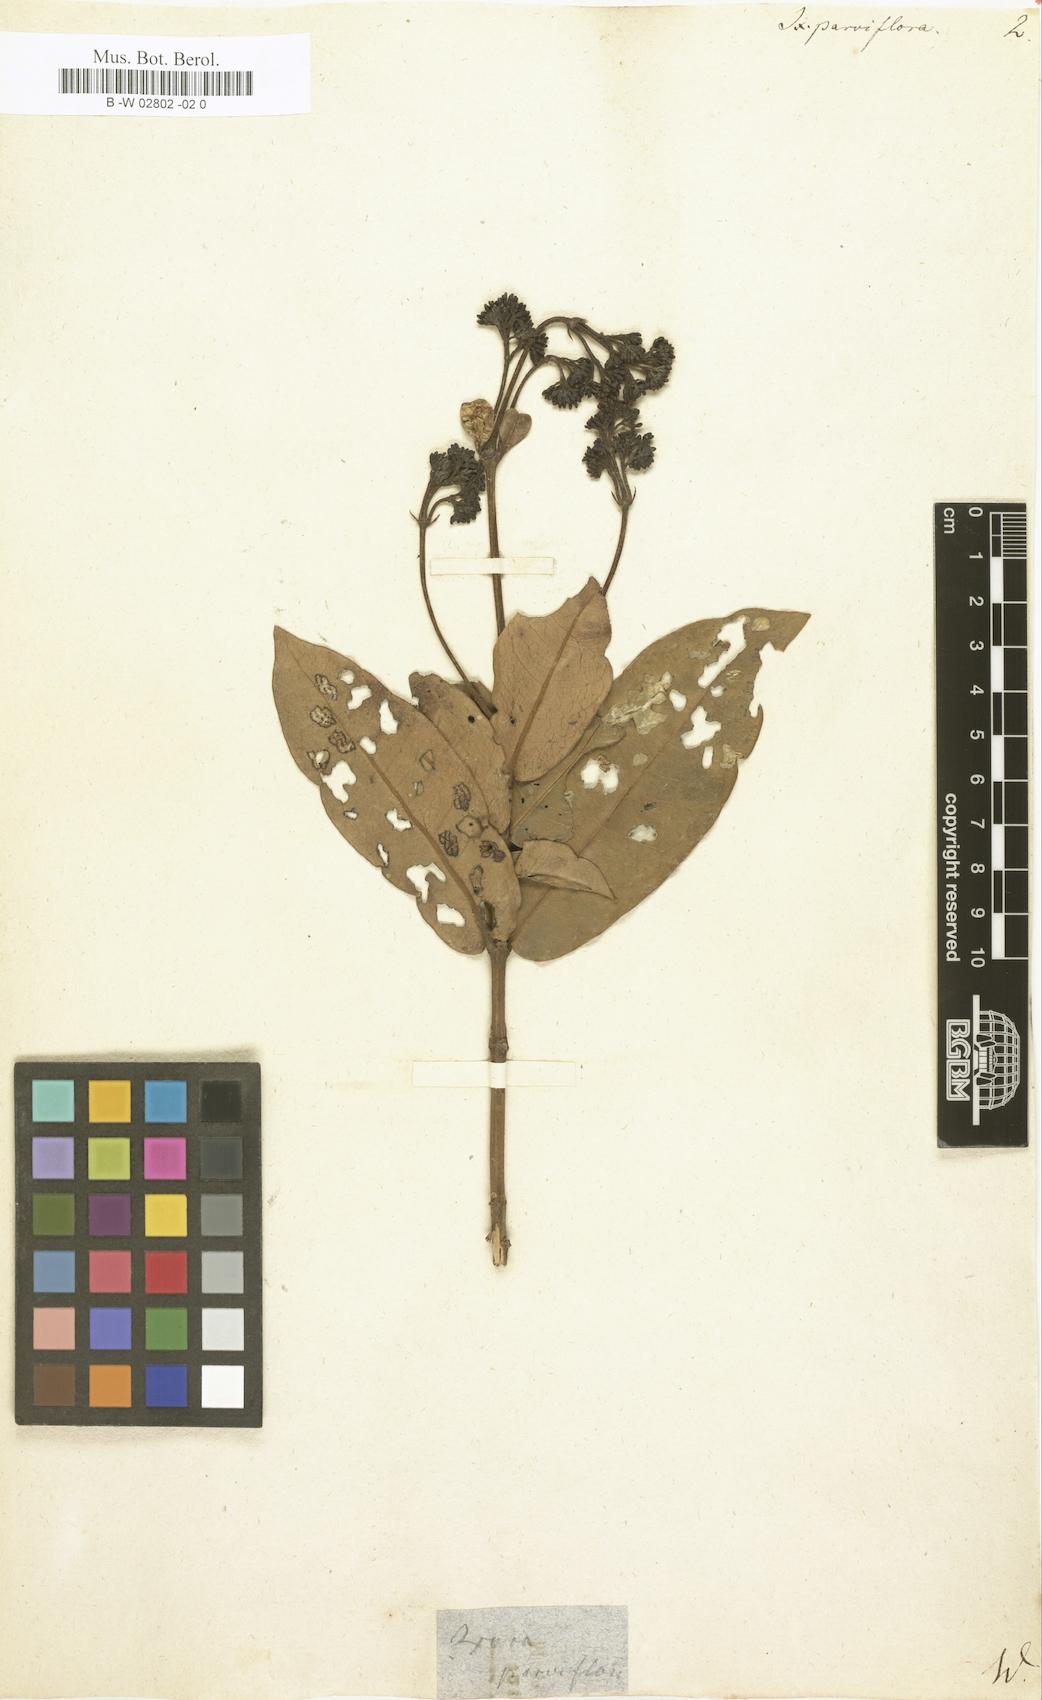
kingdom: Plantae
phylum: Tracheophyta
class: Magnoliopsida
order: Gentianales
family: Rubiaceae
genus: Ixora
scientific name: Ixora parviflora
